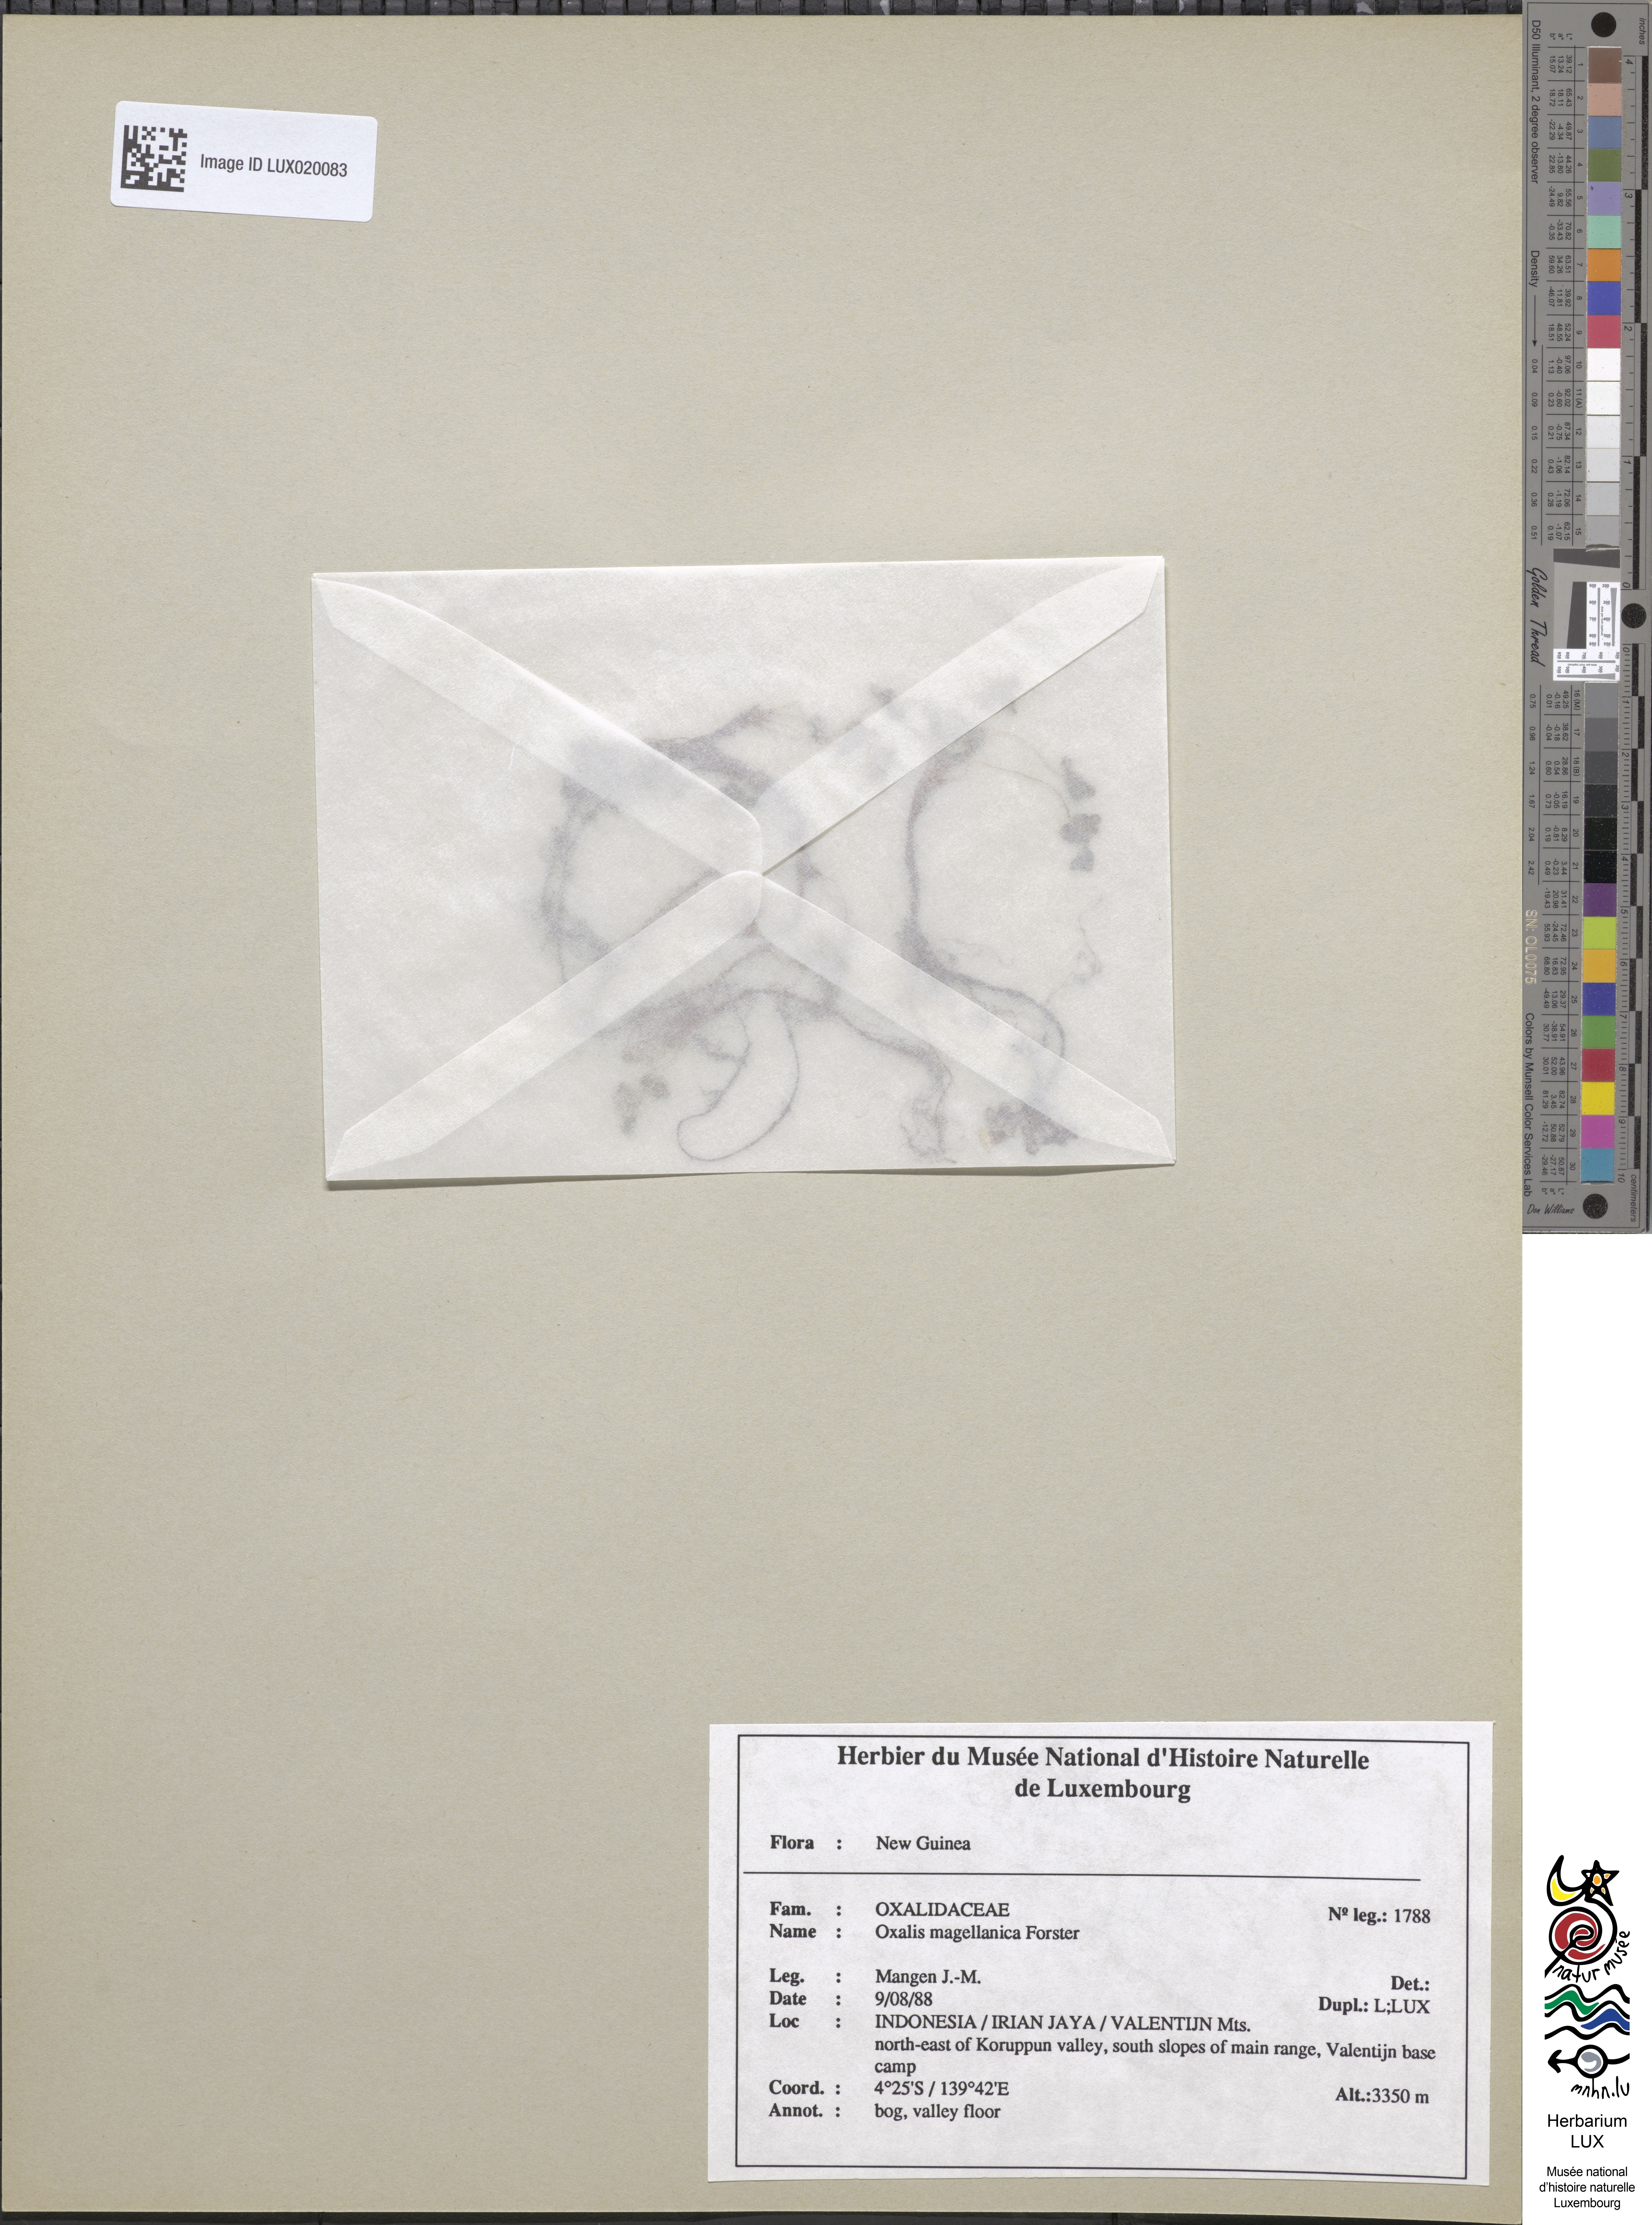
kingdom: Plantae
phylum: Tracheophyta
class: Magnoliopsida
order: Oxalidales
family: Oxalidaceae
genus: Oxalis
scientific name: Oxalis magellanica
